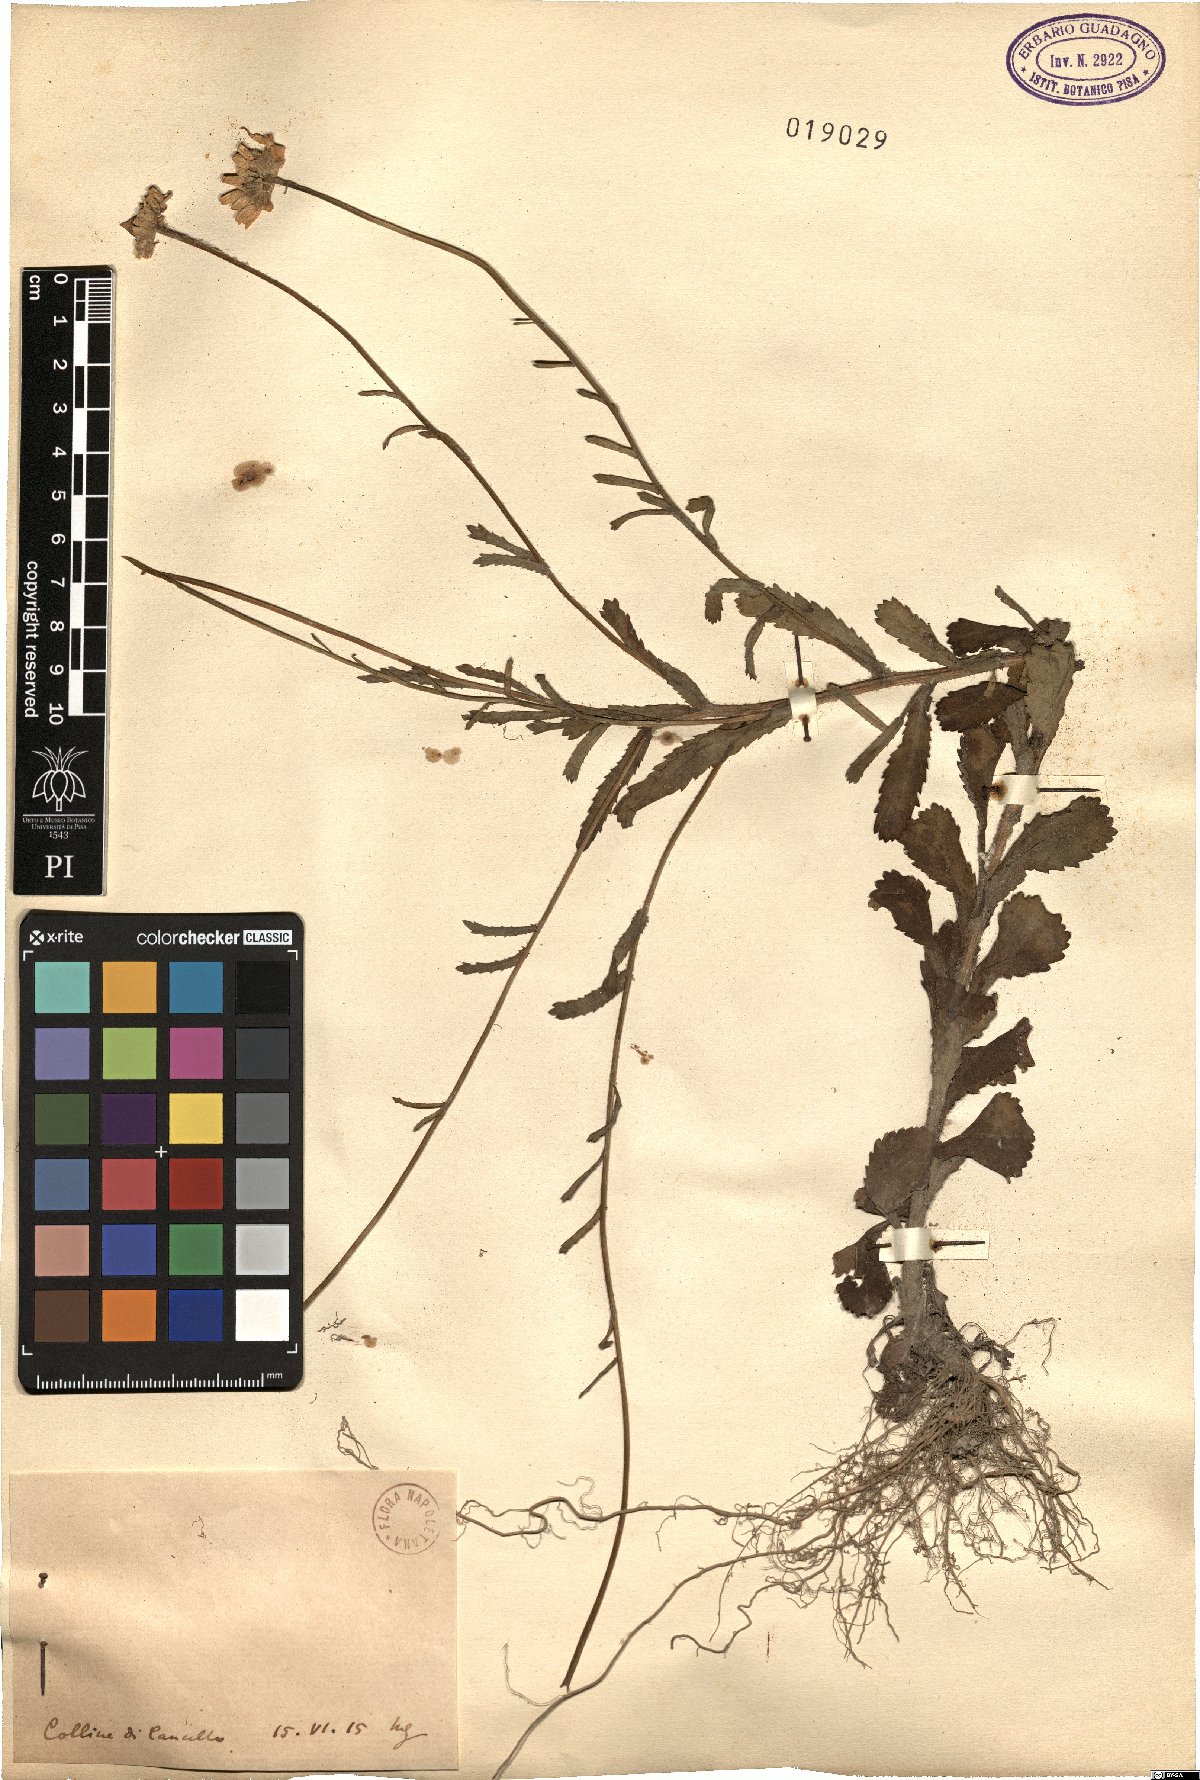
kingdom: Plantae
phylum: Tracheophyta
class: Magnoliopsida
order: Asterales
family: Asteraceae
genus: Pyrethrum
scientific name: Pyrethrum
